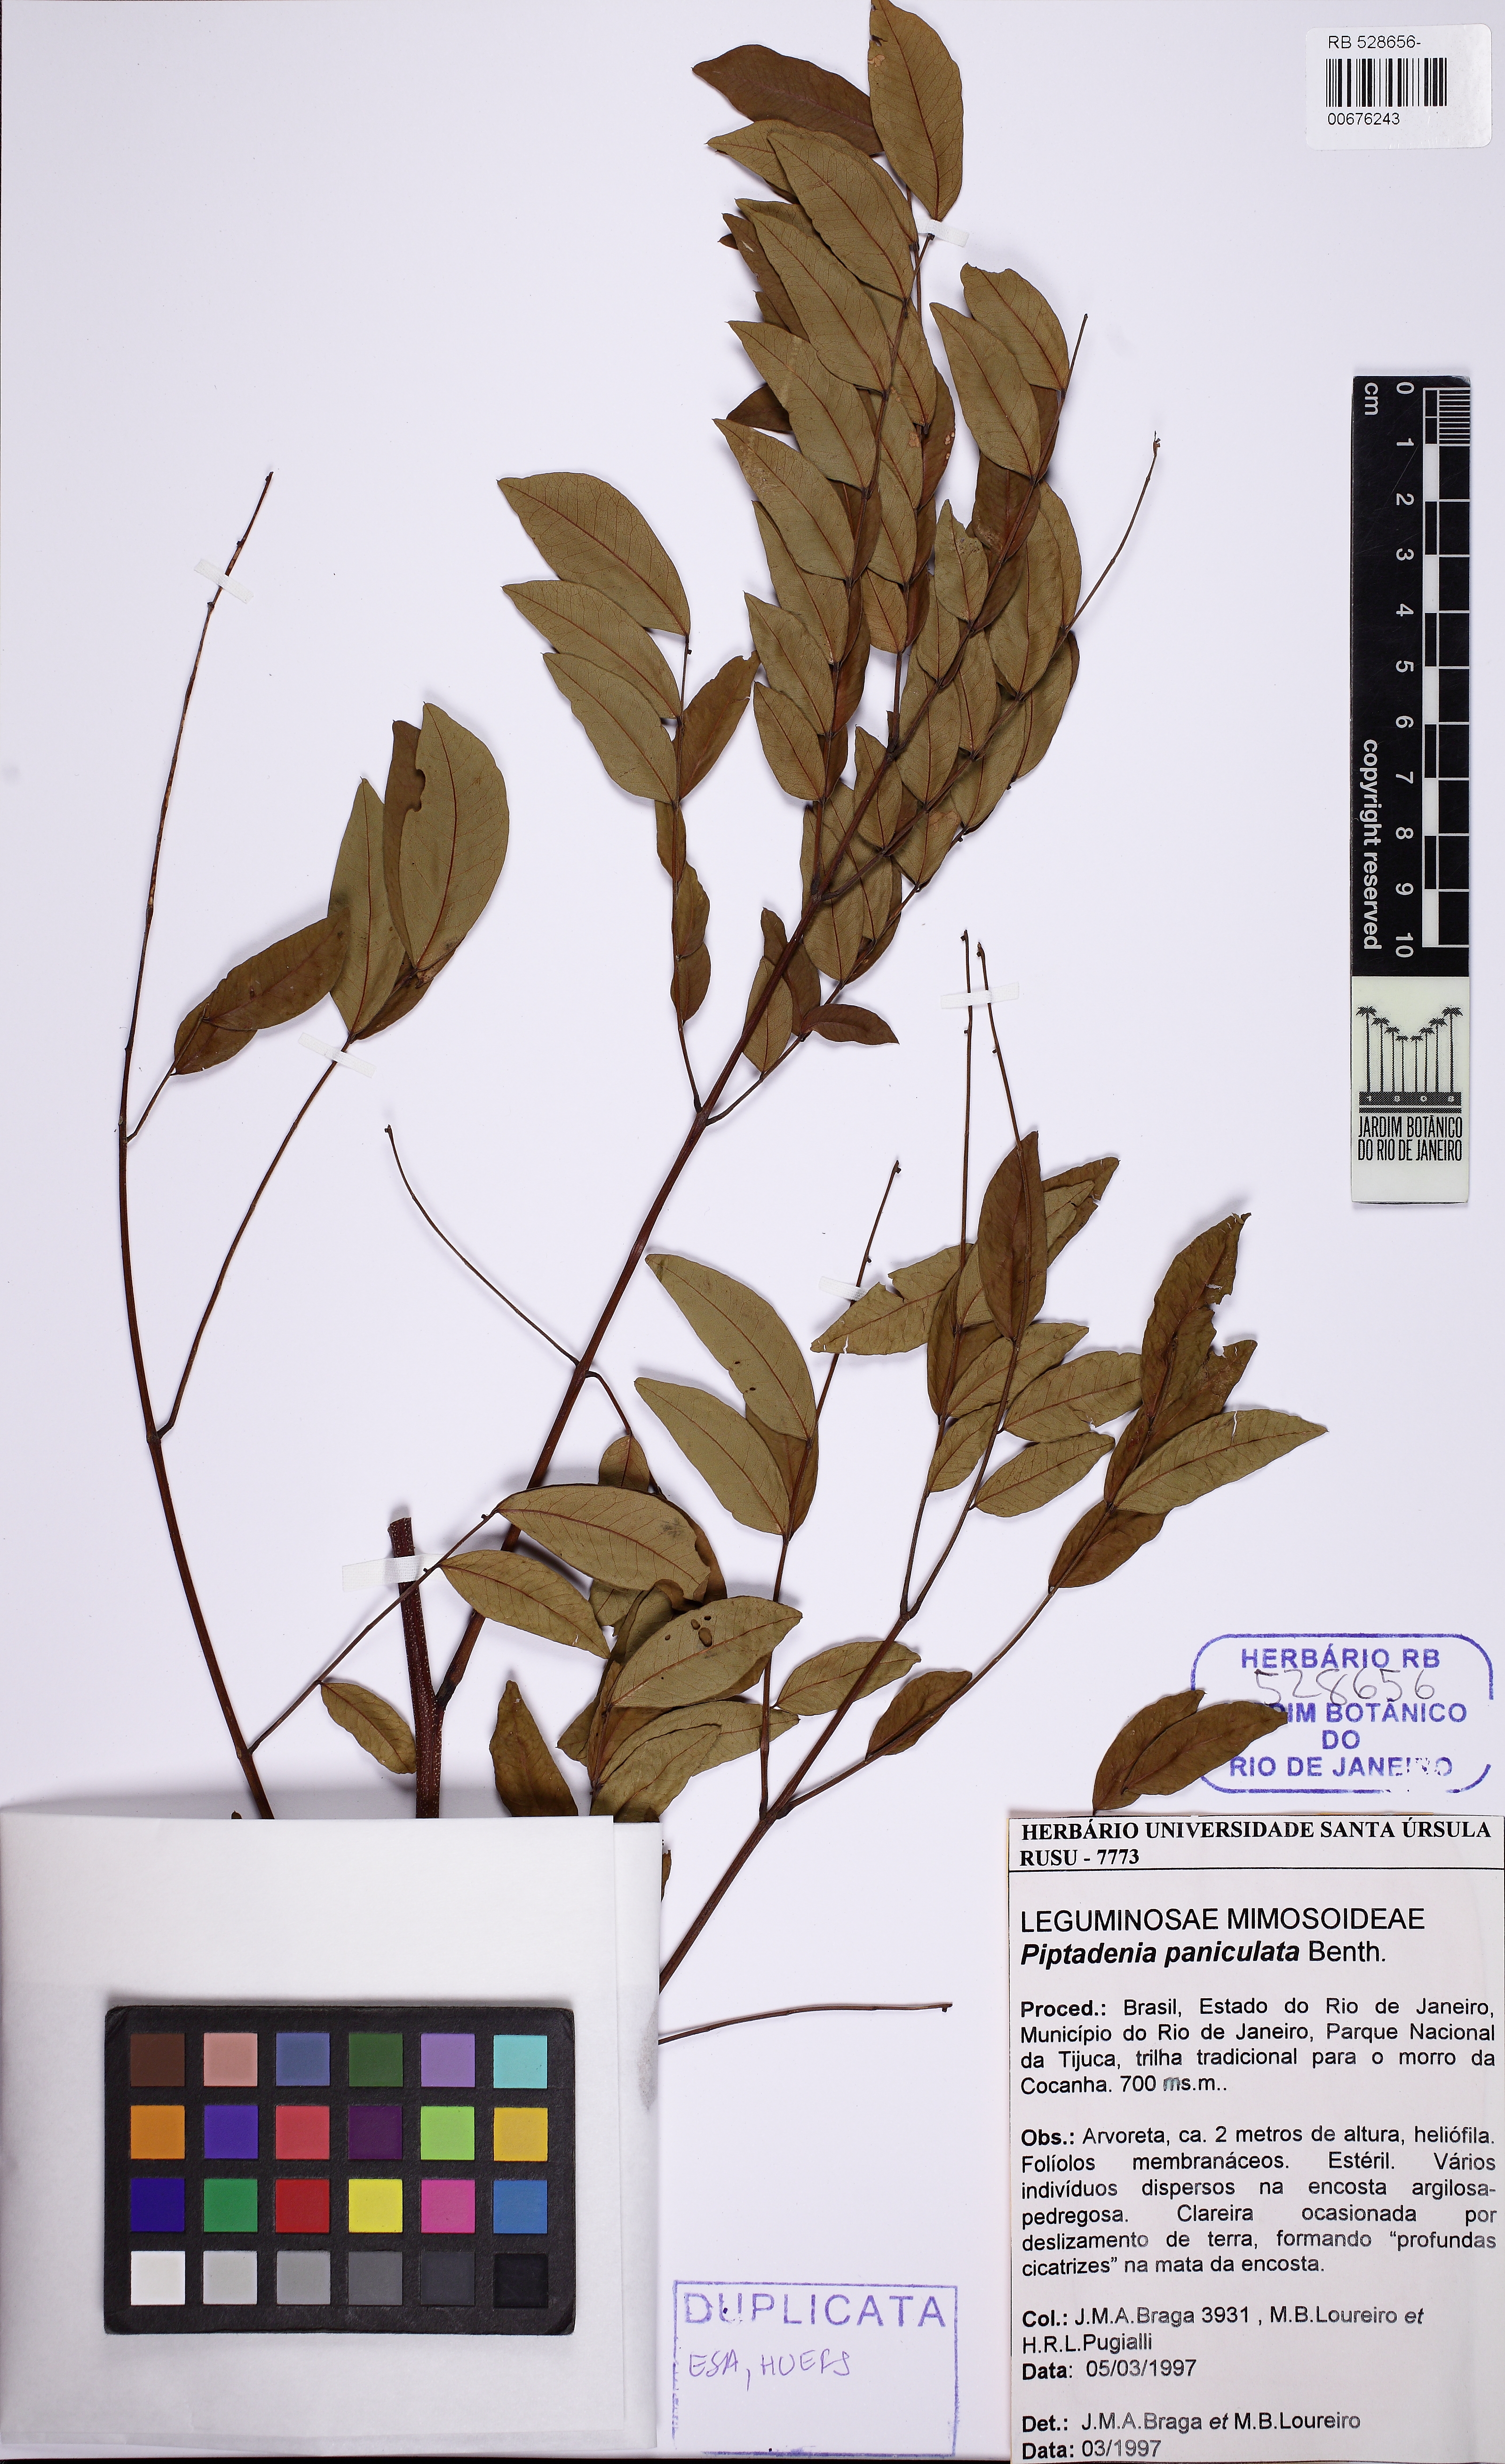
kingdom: Plantae
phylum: Tracheophyta
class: Magnoliopsida
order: Fabales
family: Fabaceae
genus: Piptadenia
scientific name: Piptadenia paniculata
